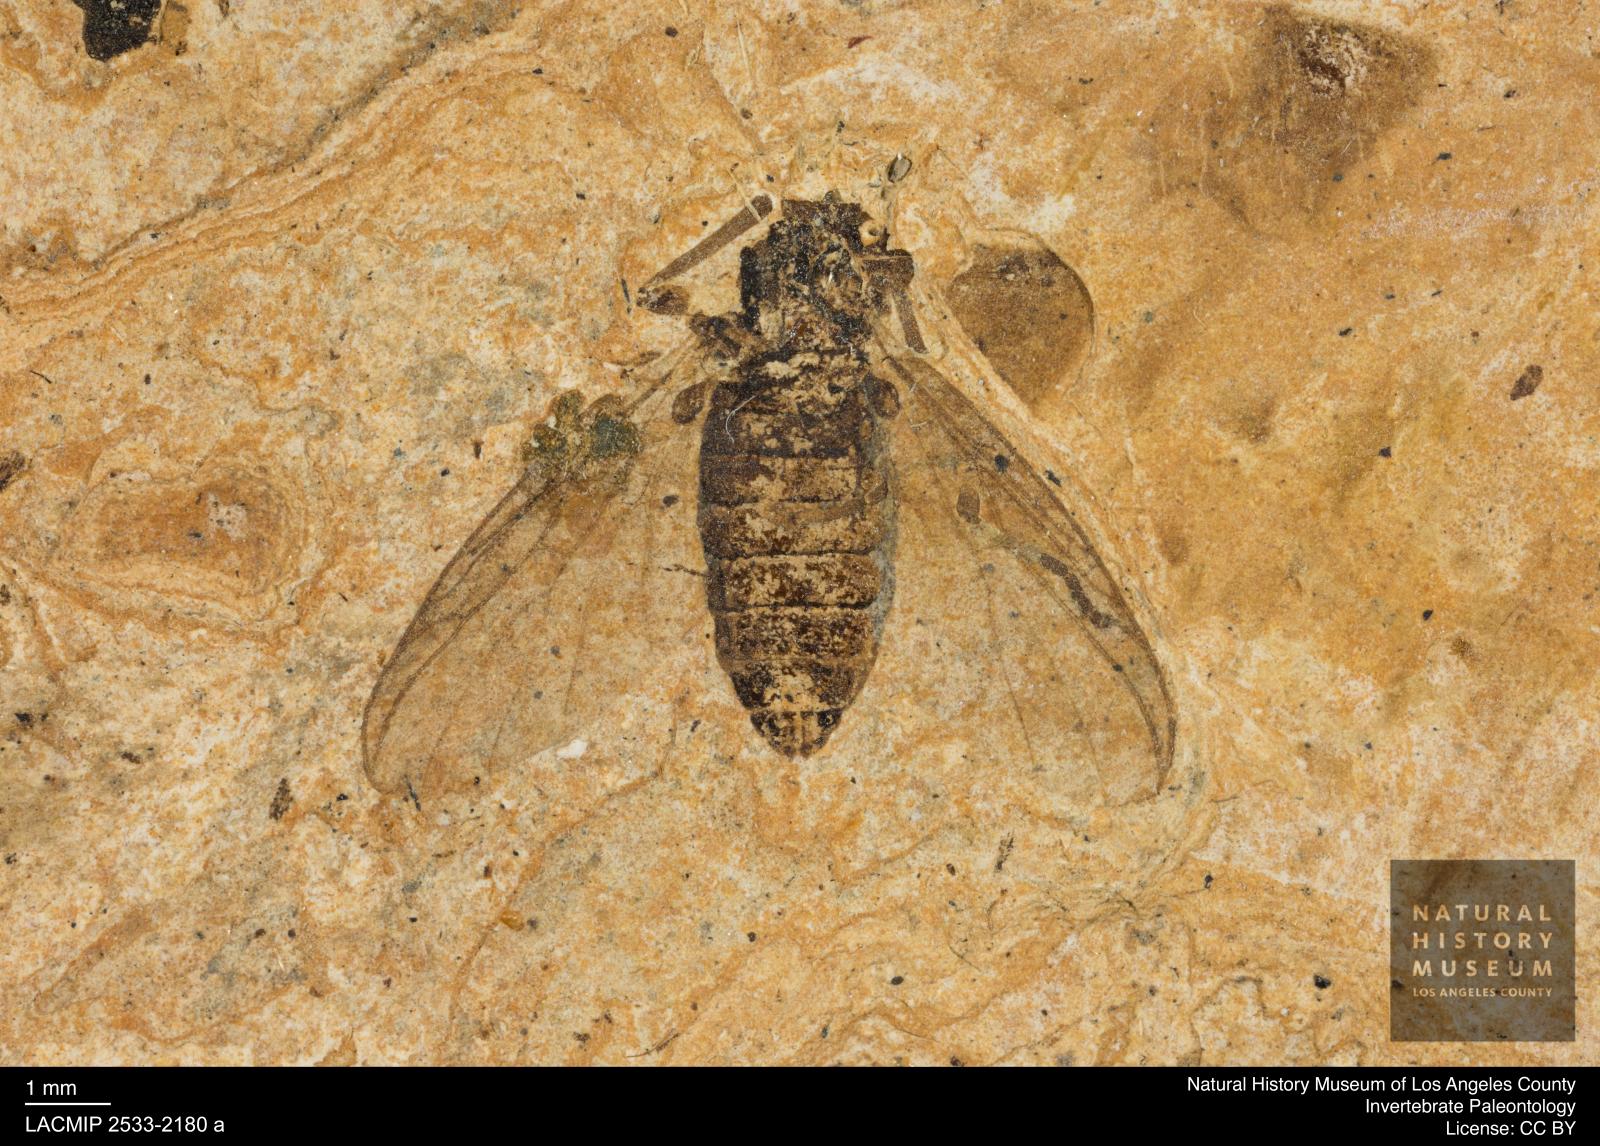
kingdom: Animalia
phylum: Arthropoda
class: Insecta
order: Diptera
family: Chironomidae
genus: Procladius
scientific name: Procladius
